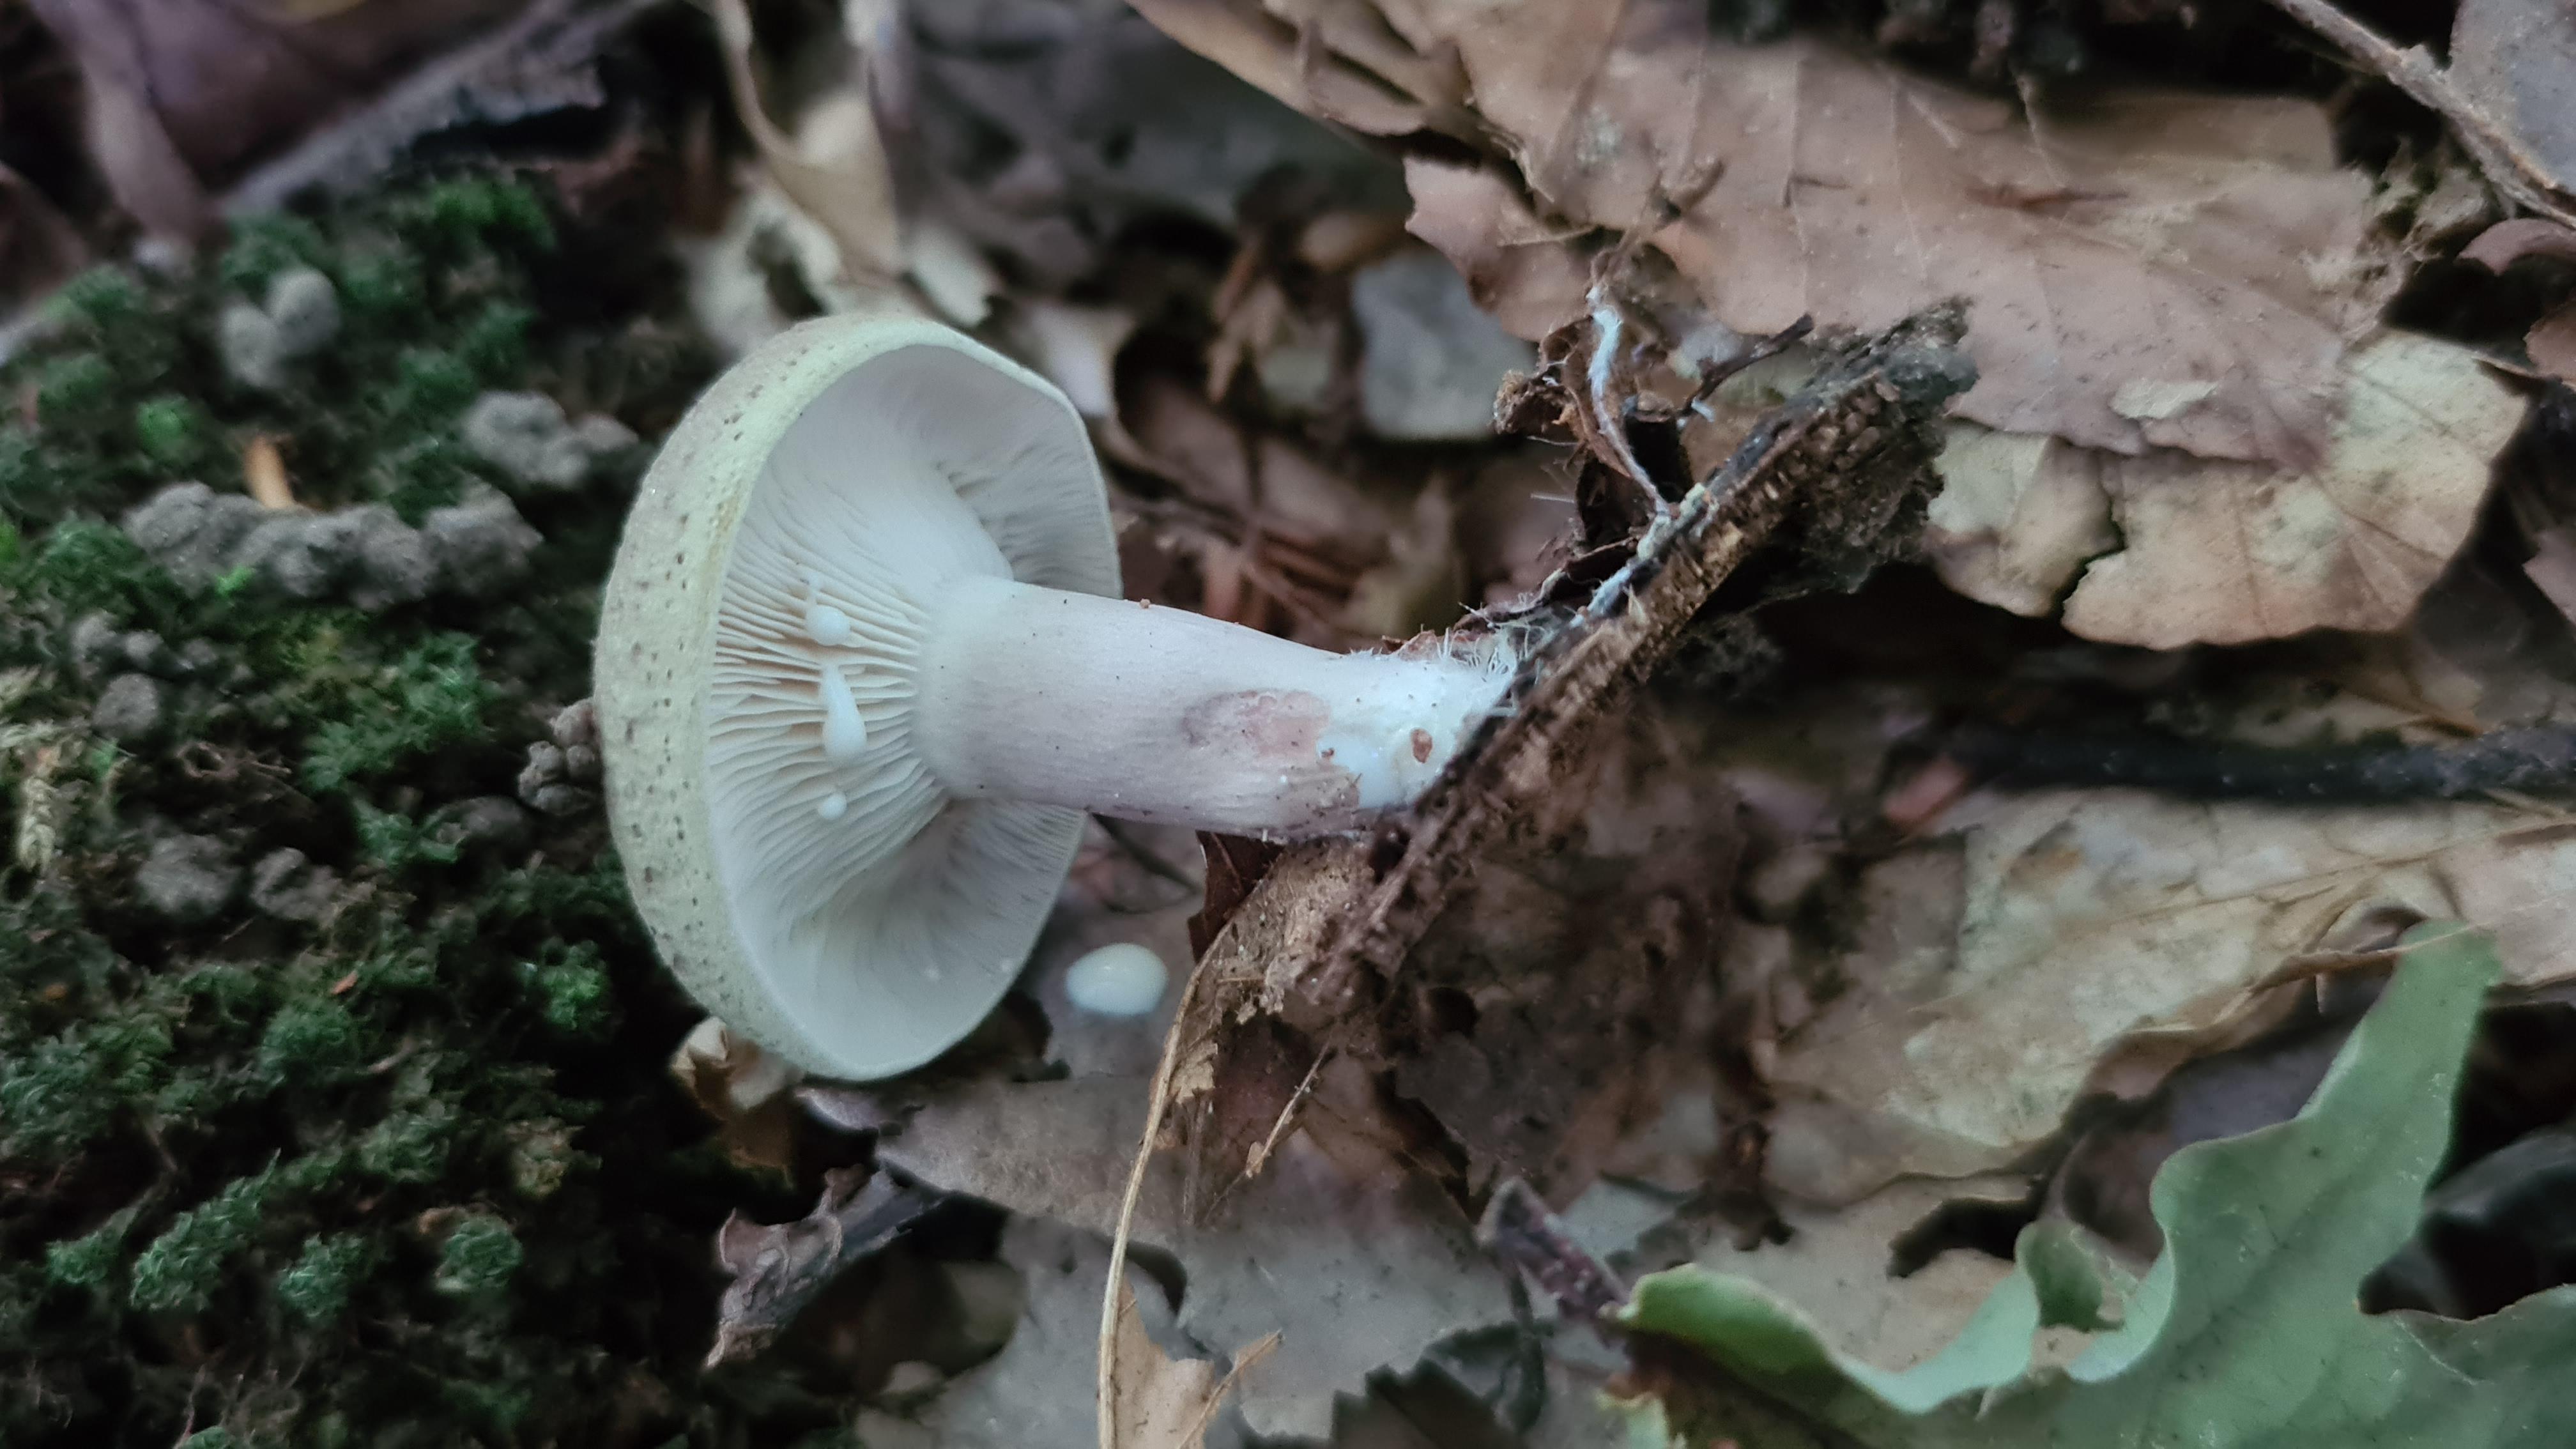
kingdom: Fungi
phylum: Basidiomycota
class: Agaricomycetes
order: Russulales
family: Russulaceae
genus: Lactarius
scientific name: Lactarius blennius
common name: dråbeplettet mælkehat
